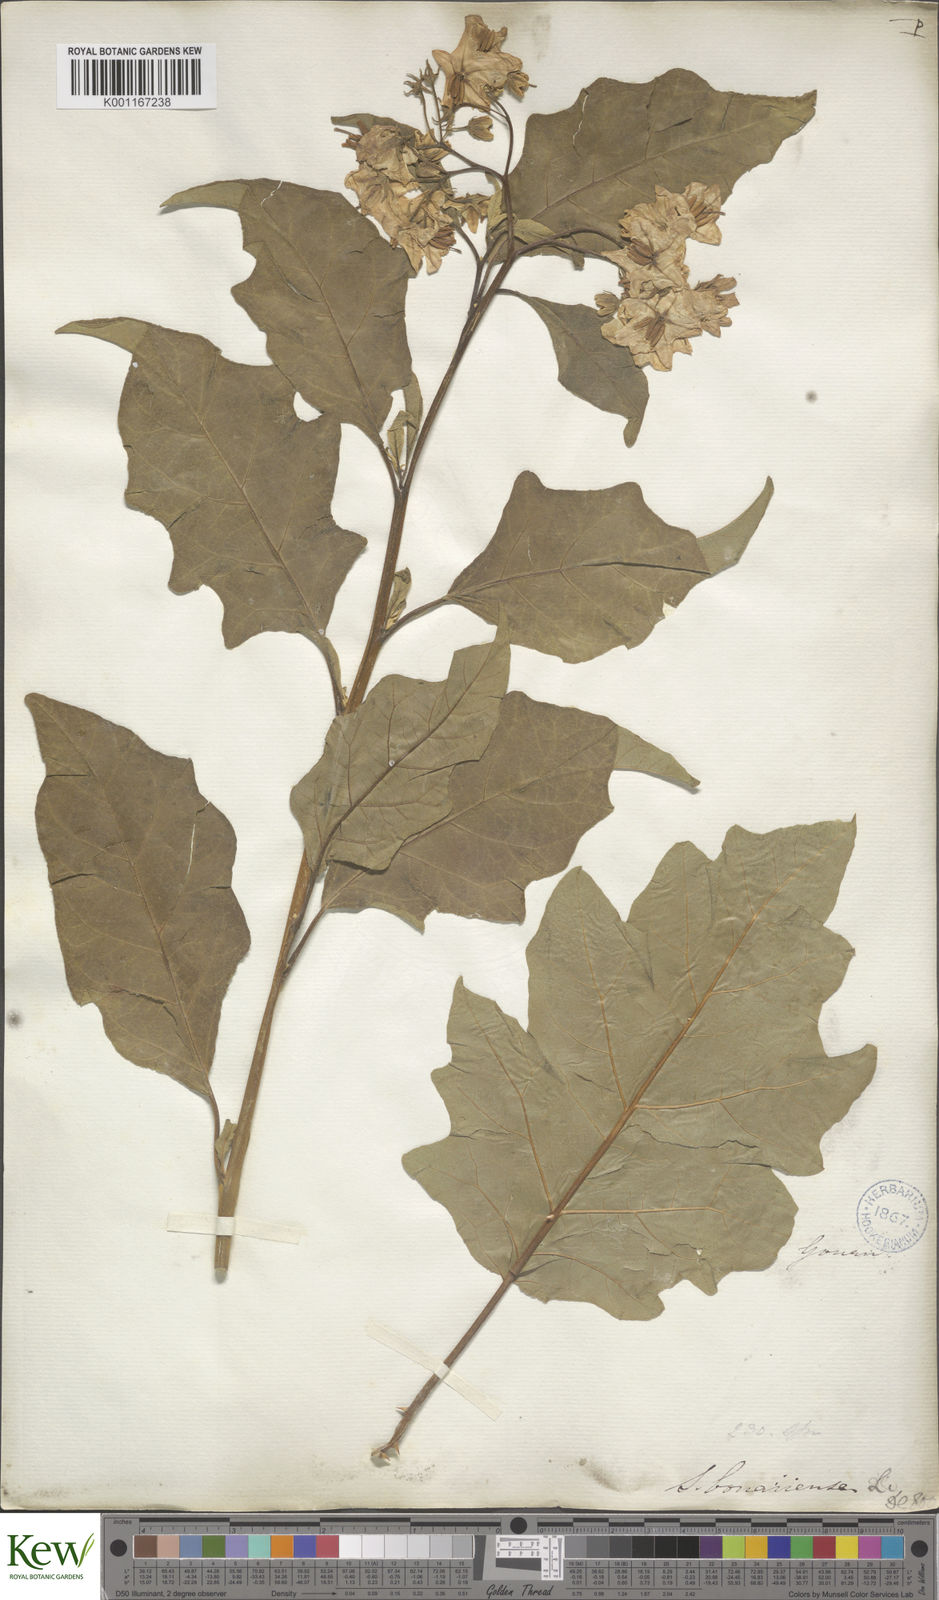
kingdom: Plantae
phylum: Tracheophyta
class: Magnoliopsida
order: Solanales
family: Solanaceae
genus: Solanum
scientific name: Solanum bonariense
